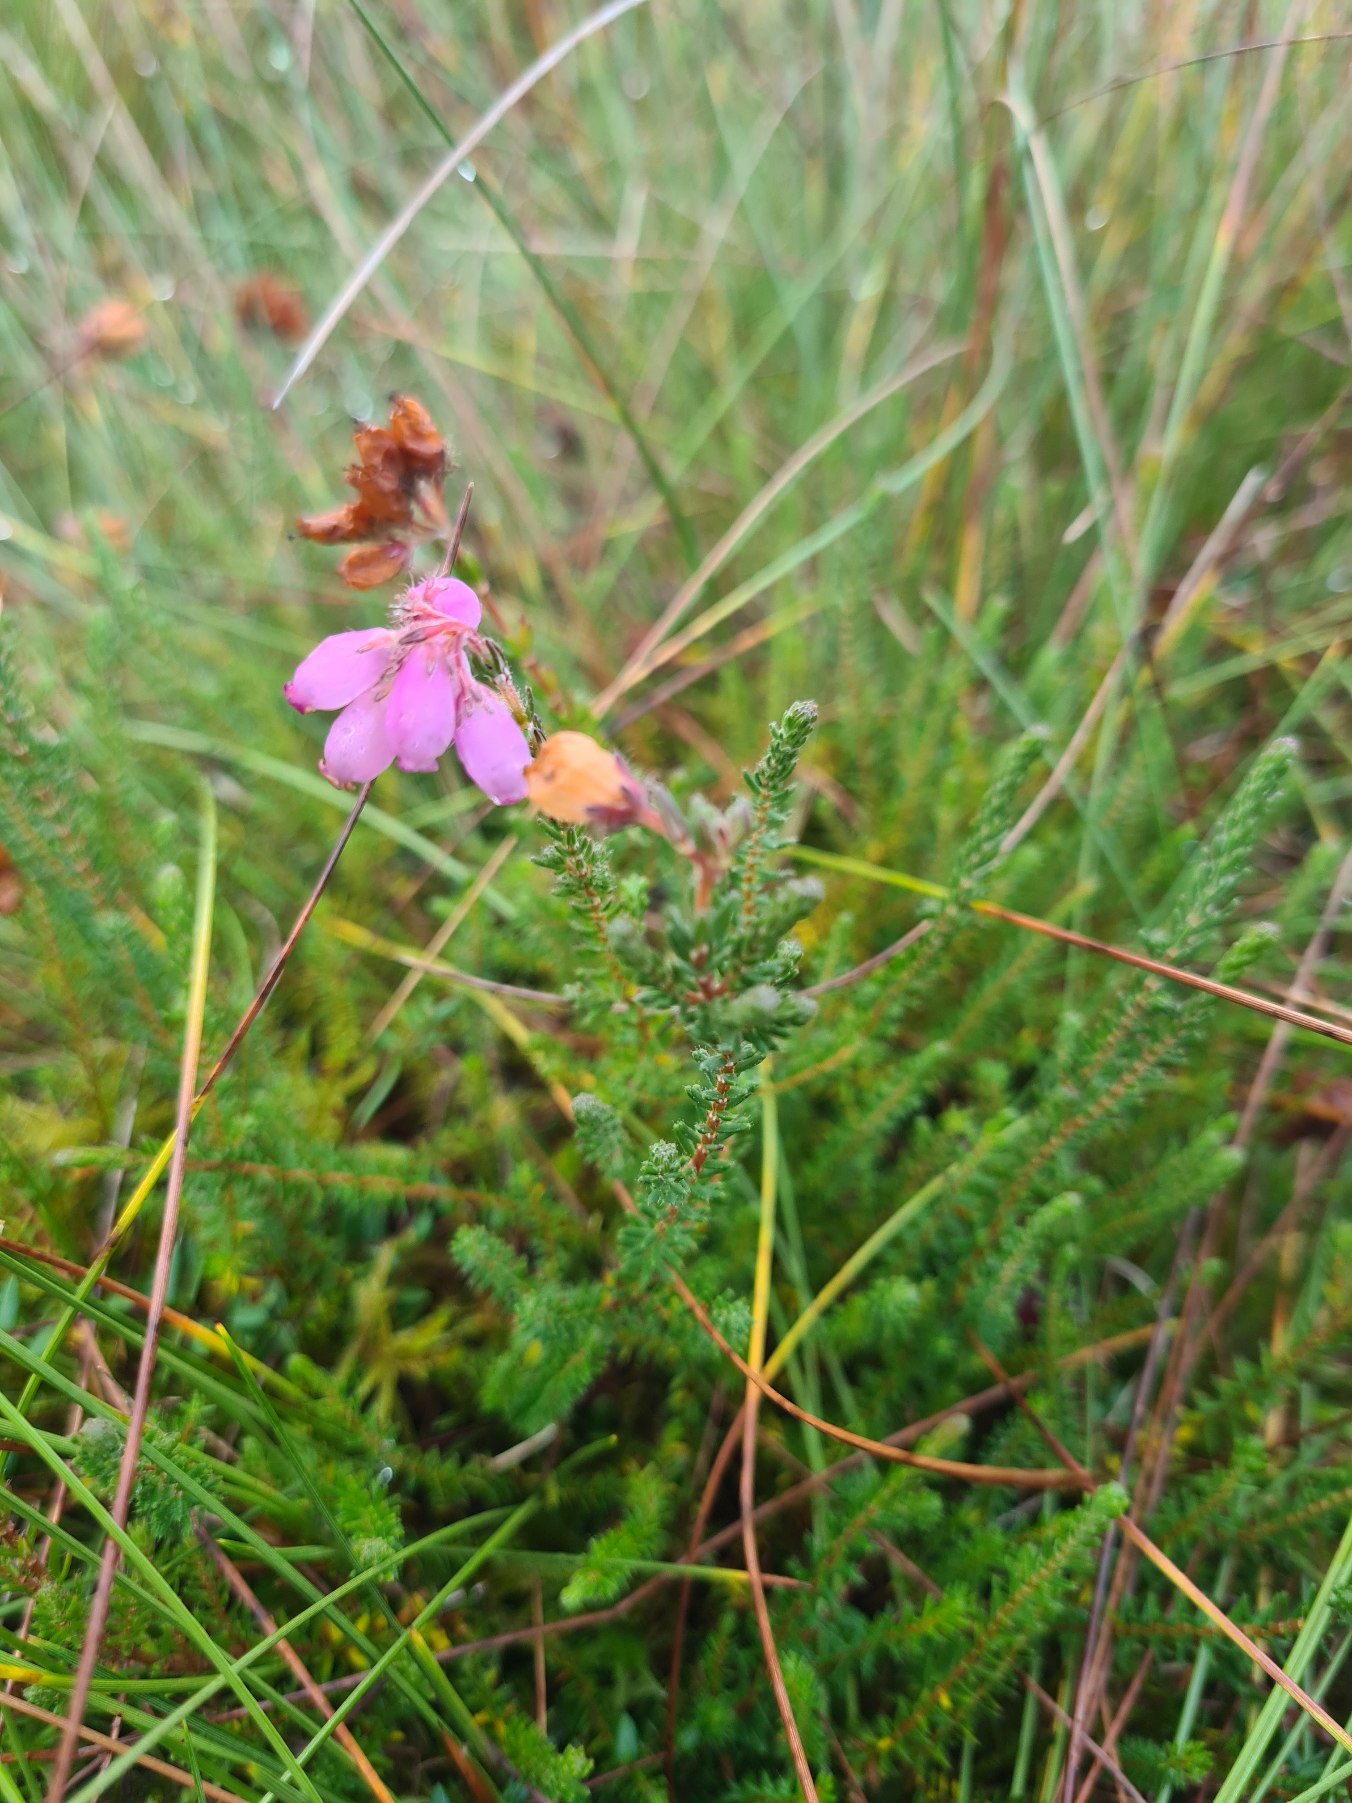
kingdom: Plantae
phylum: Tracheophyta
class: Magnoliopsida
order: Ericales
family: Ericaceae
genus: Erica
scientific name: Erica tetralix
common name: Klokkelyng
